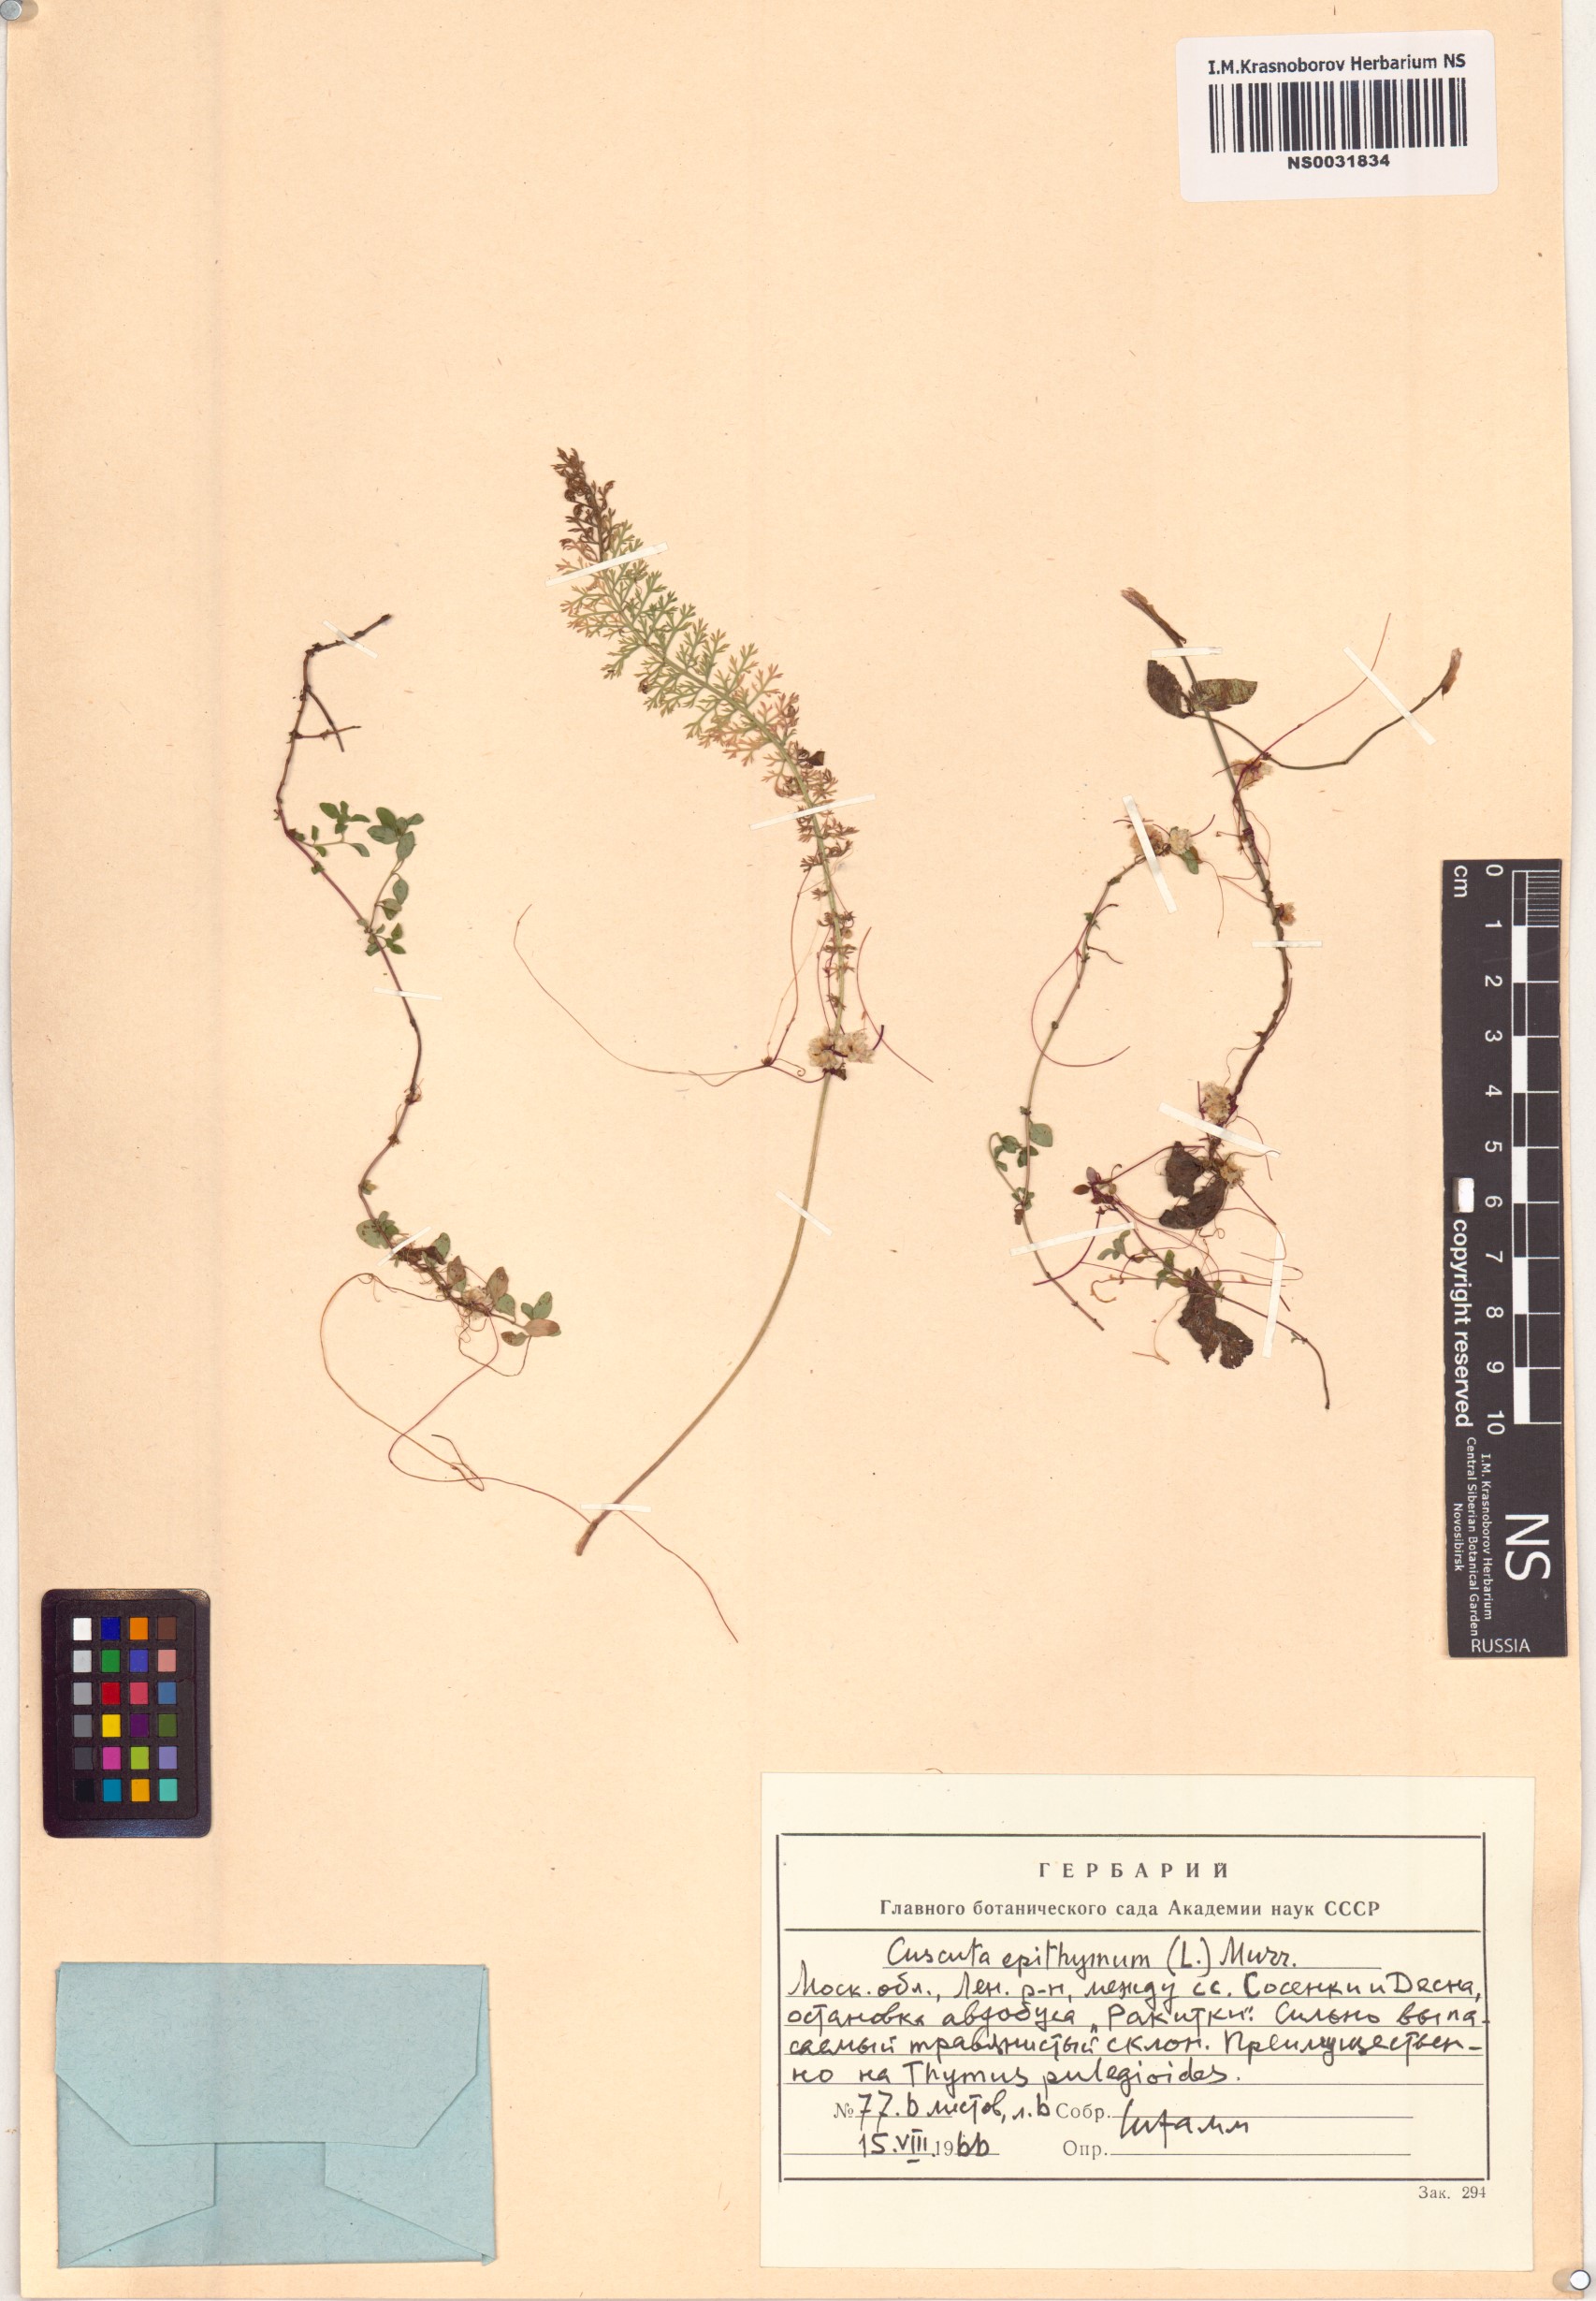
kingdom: Plantae
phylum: Tracheophyta
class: Magnoliopsida
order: Solanales
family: Convolvulaceae
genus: Cuscuta
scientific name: Cuscuta epithymum
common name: Clover dodder
